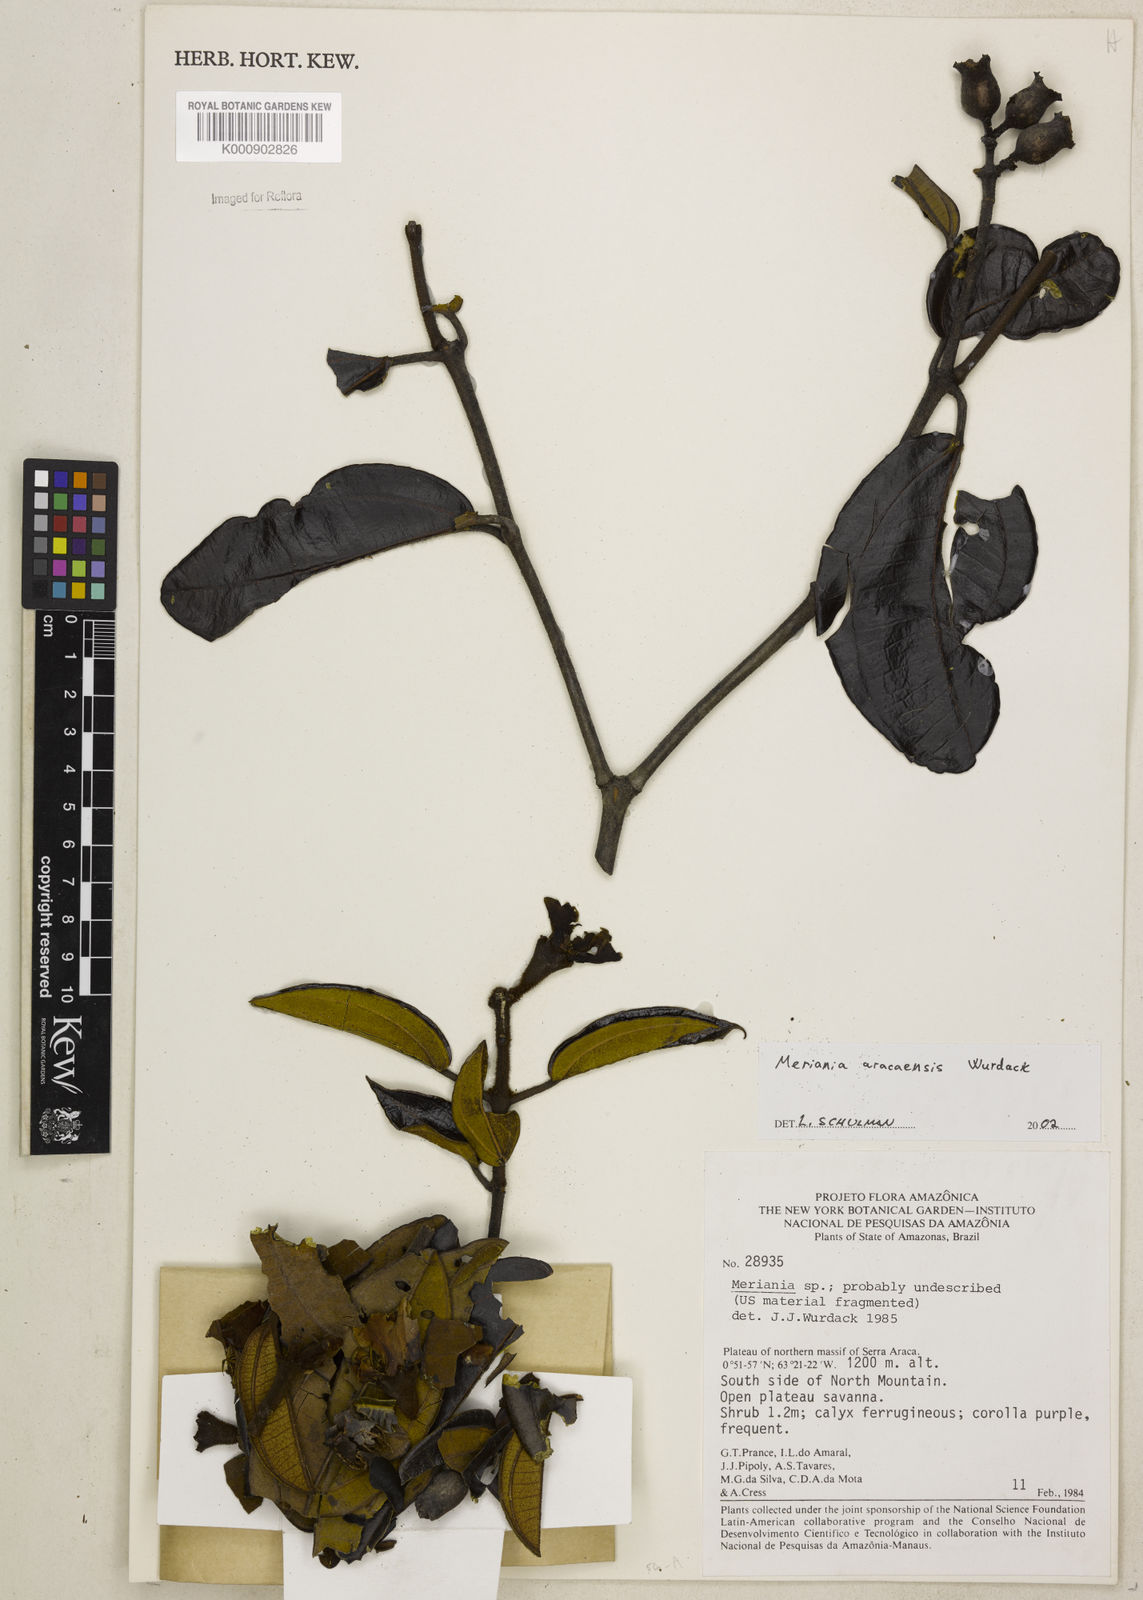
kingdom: Plantae
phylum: Tracheophyta
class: Magnoliopsida
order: Myrtales
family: Melastomataceae
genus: Meriania
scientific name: Meriania aracaensis
